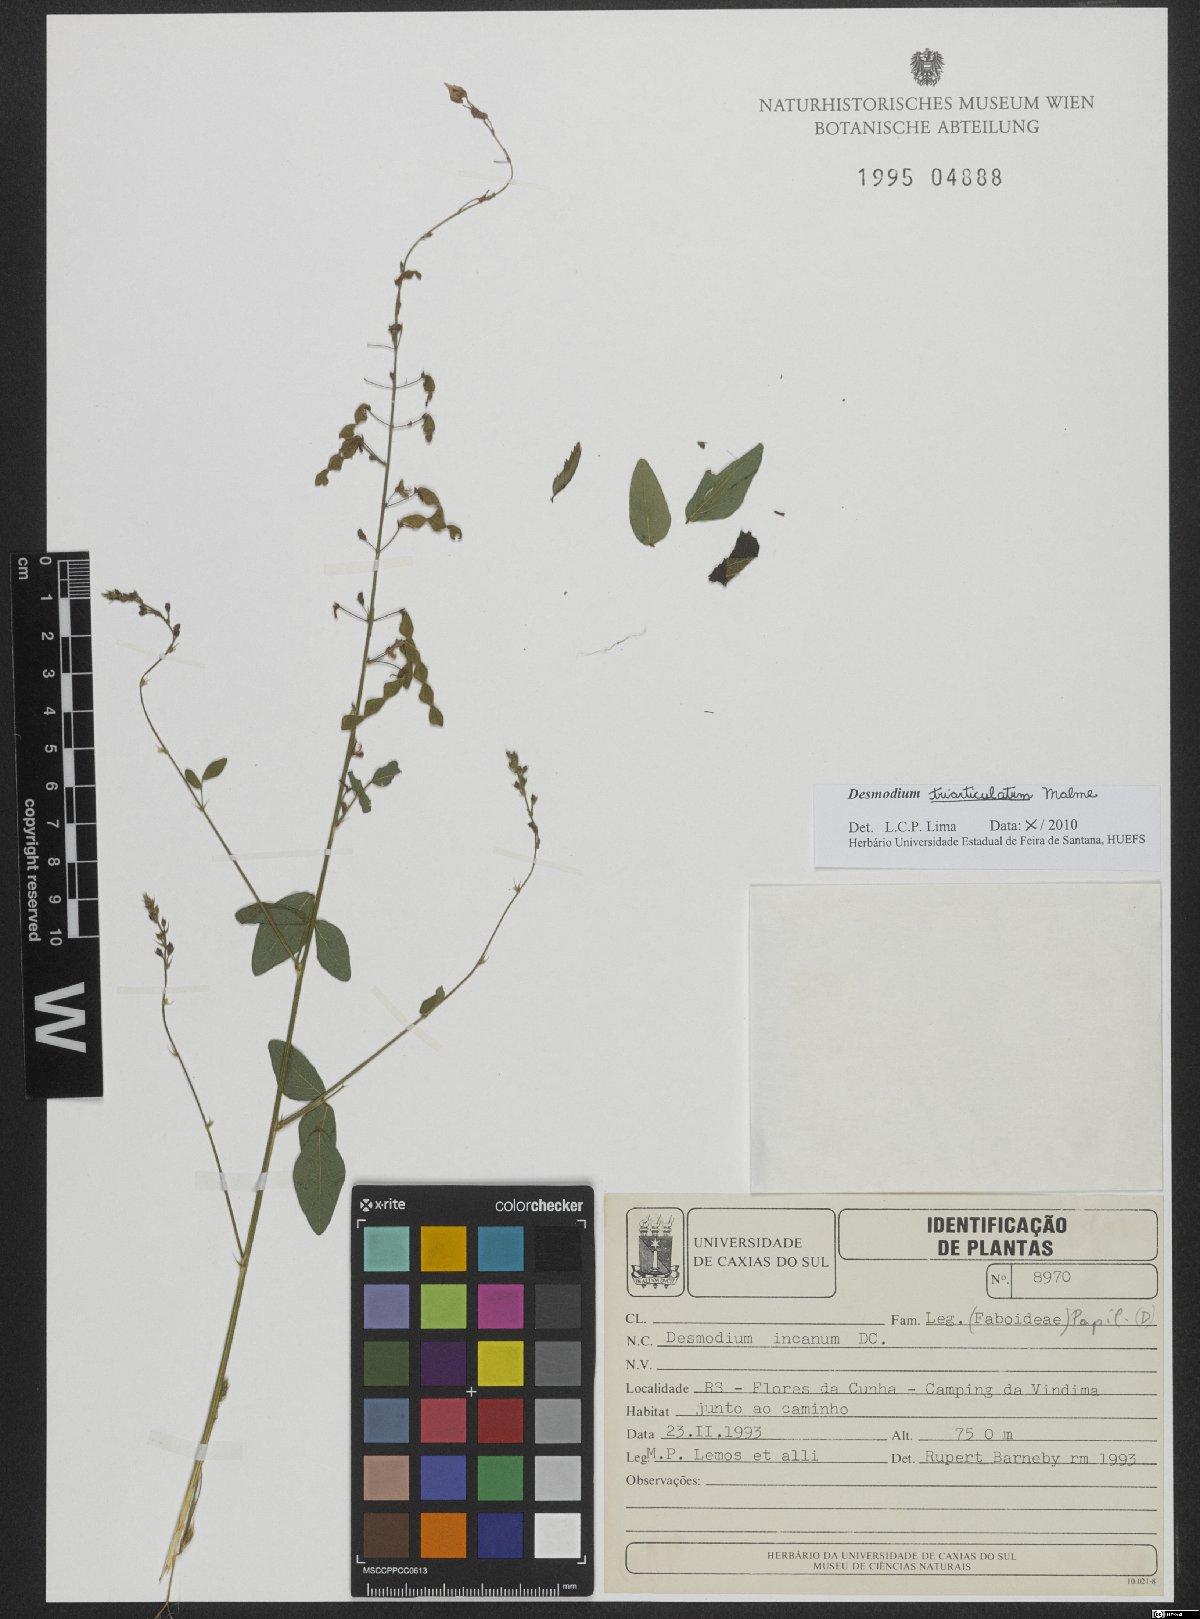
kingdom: Plantae
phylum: Tracheophyta
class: Magnoliopsida
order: Fabales
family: Fabaceae
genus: Desmodium
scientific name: Desmodium triarticulatum
